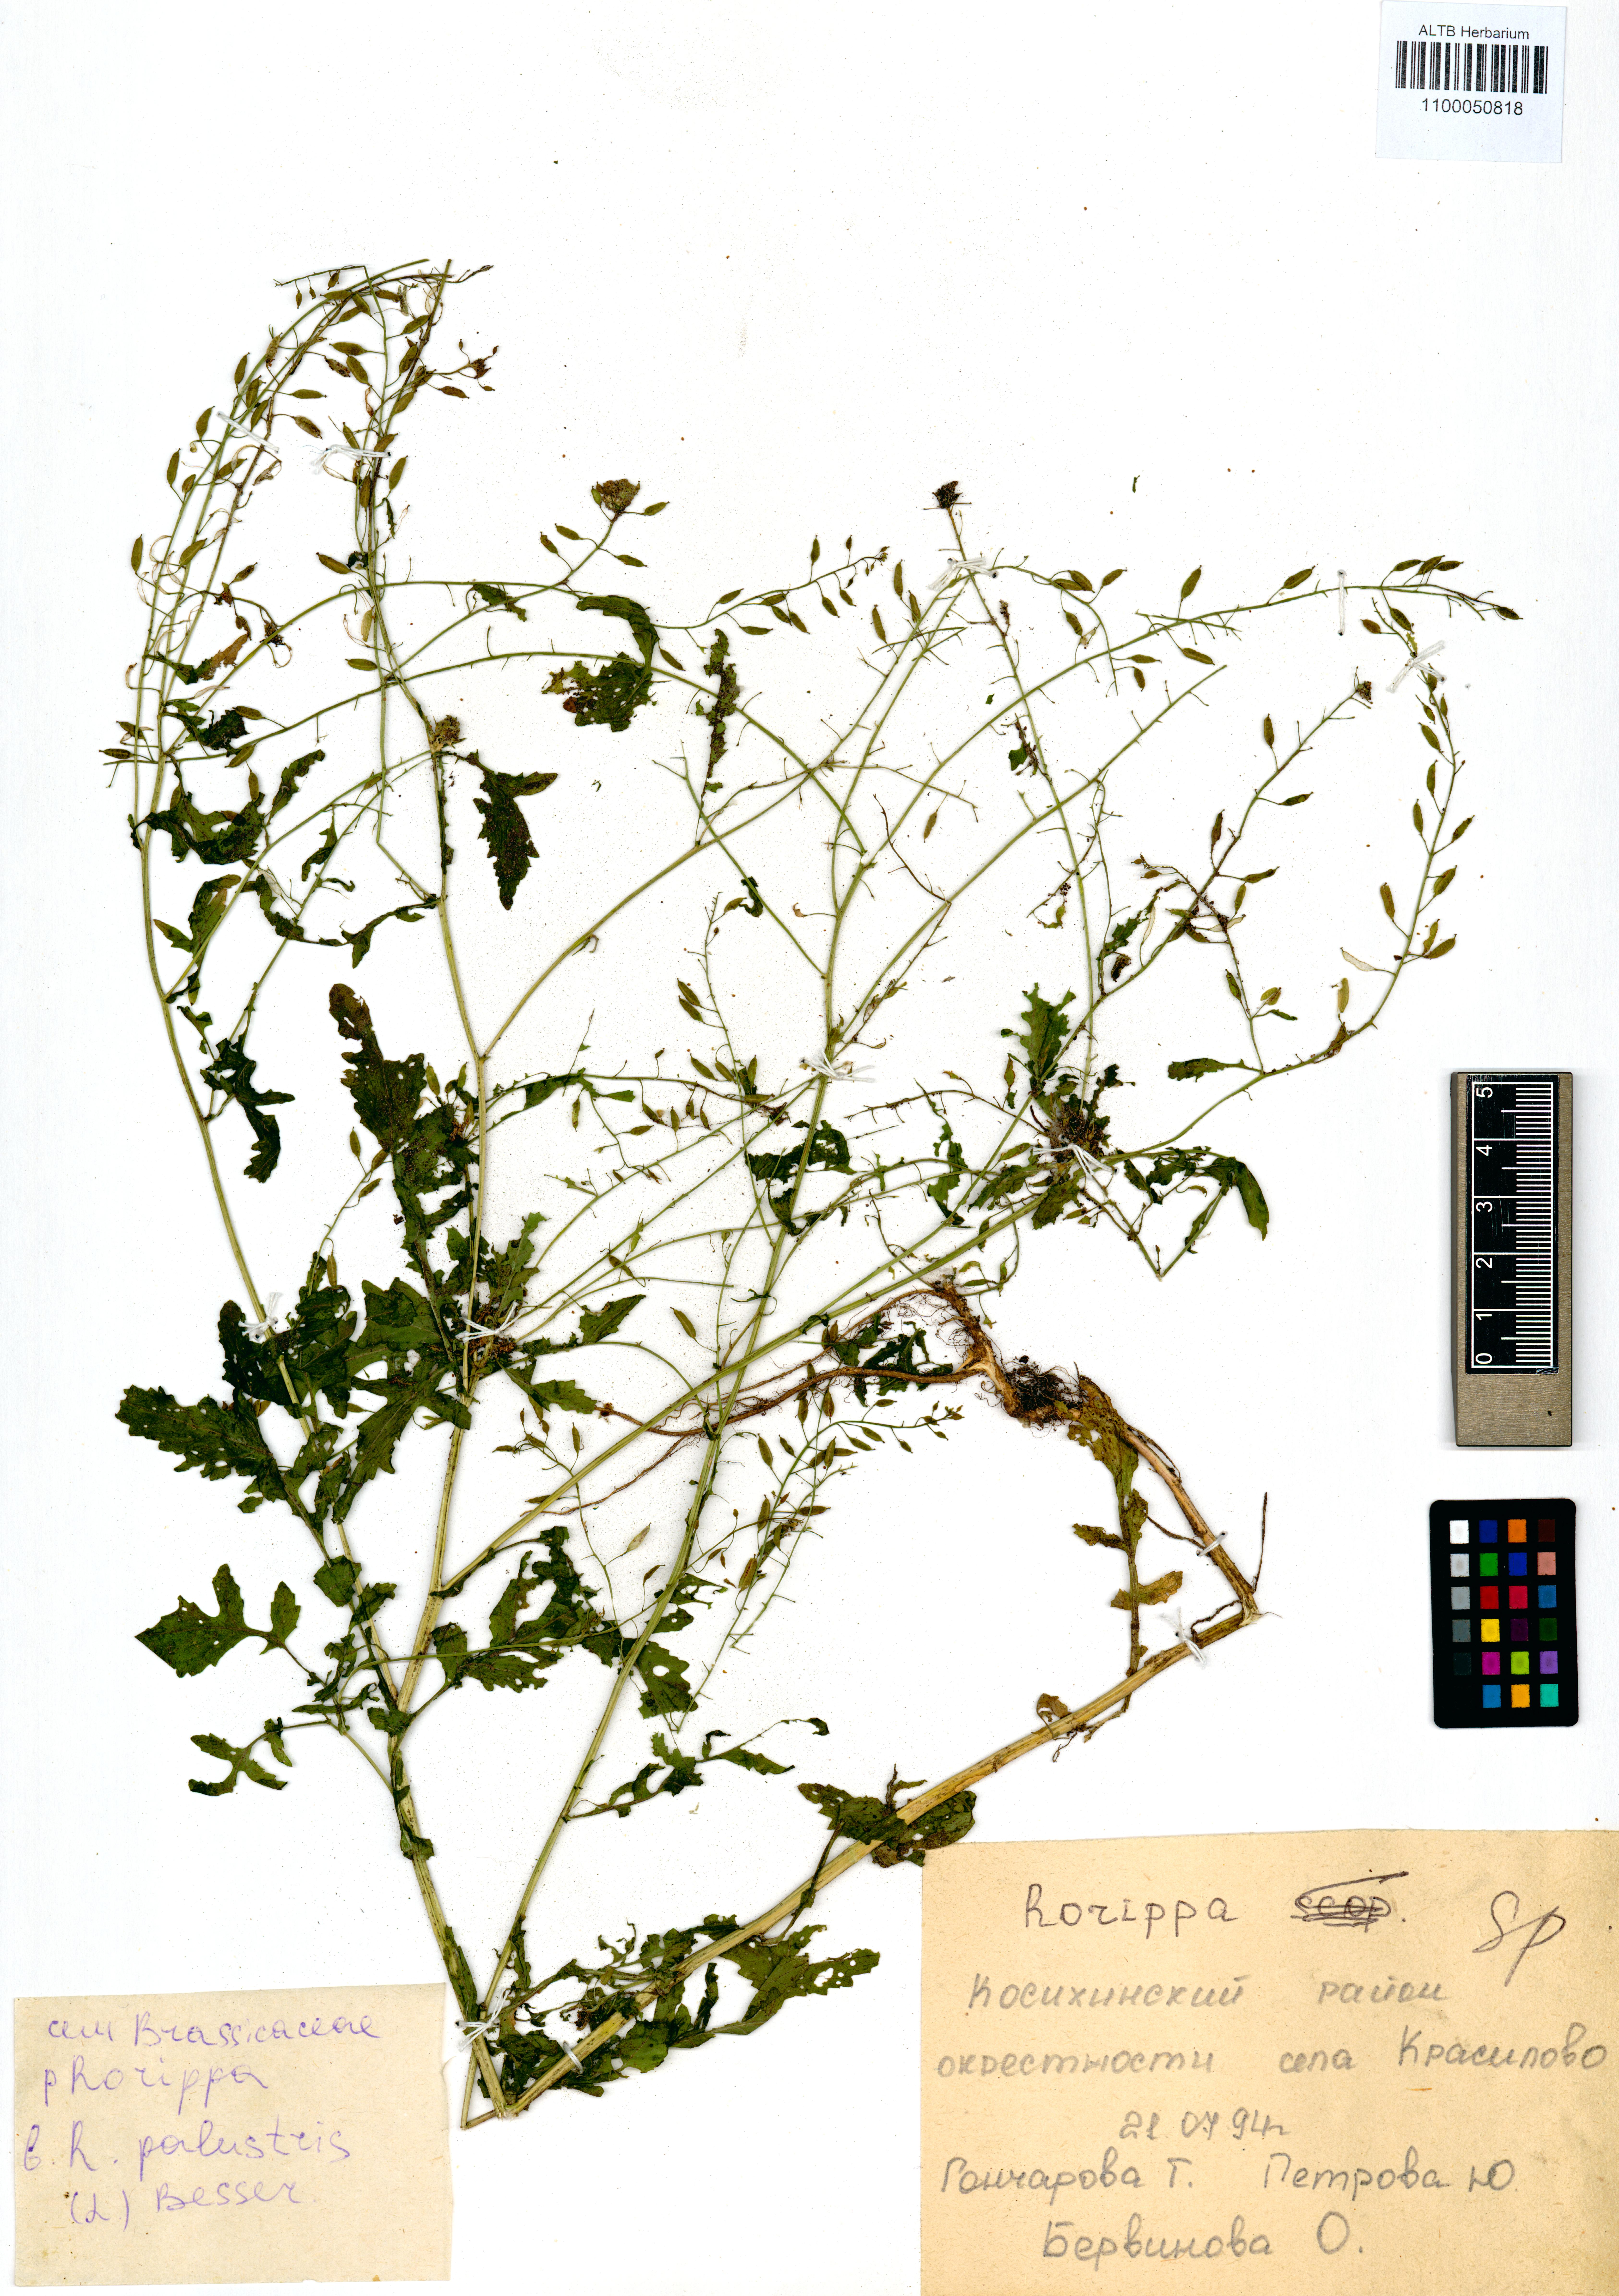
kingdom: Plantae
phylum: Tracheophyta
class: Magnoliopsida
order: Brassicales
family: Brassicaceae
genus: Rorippa
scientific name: Rorippa palustris
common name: Marsh yellow-cress
